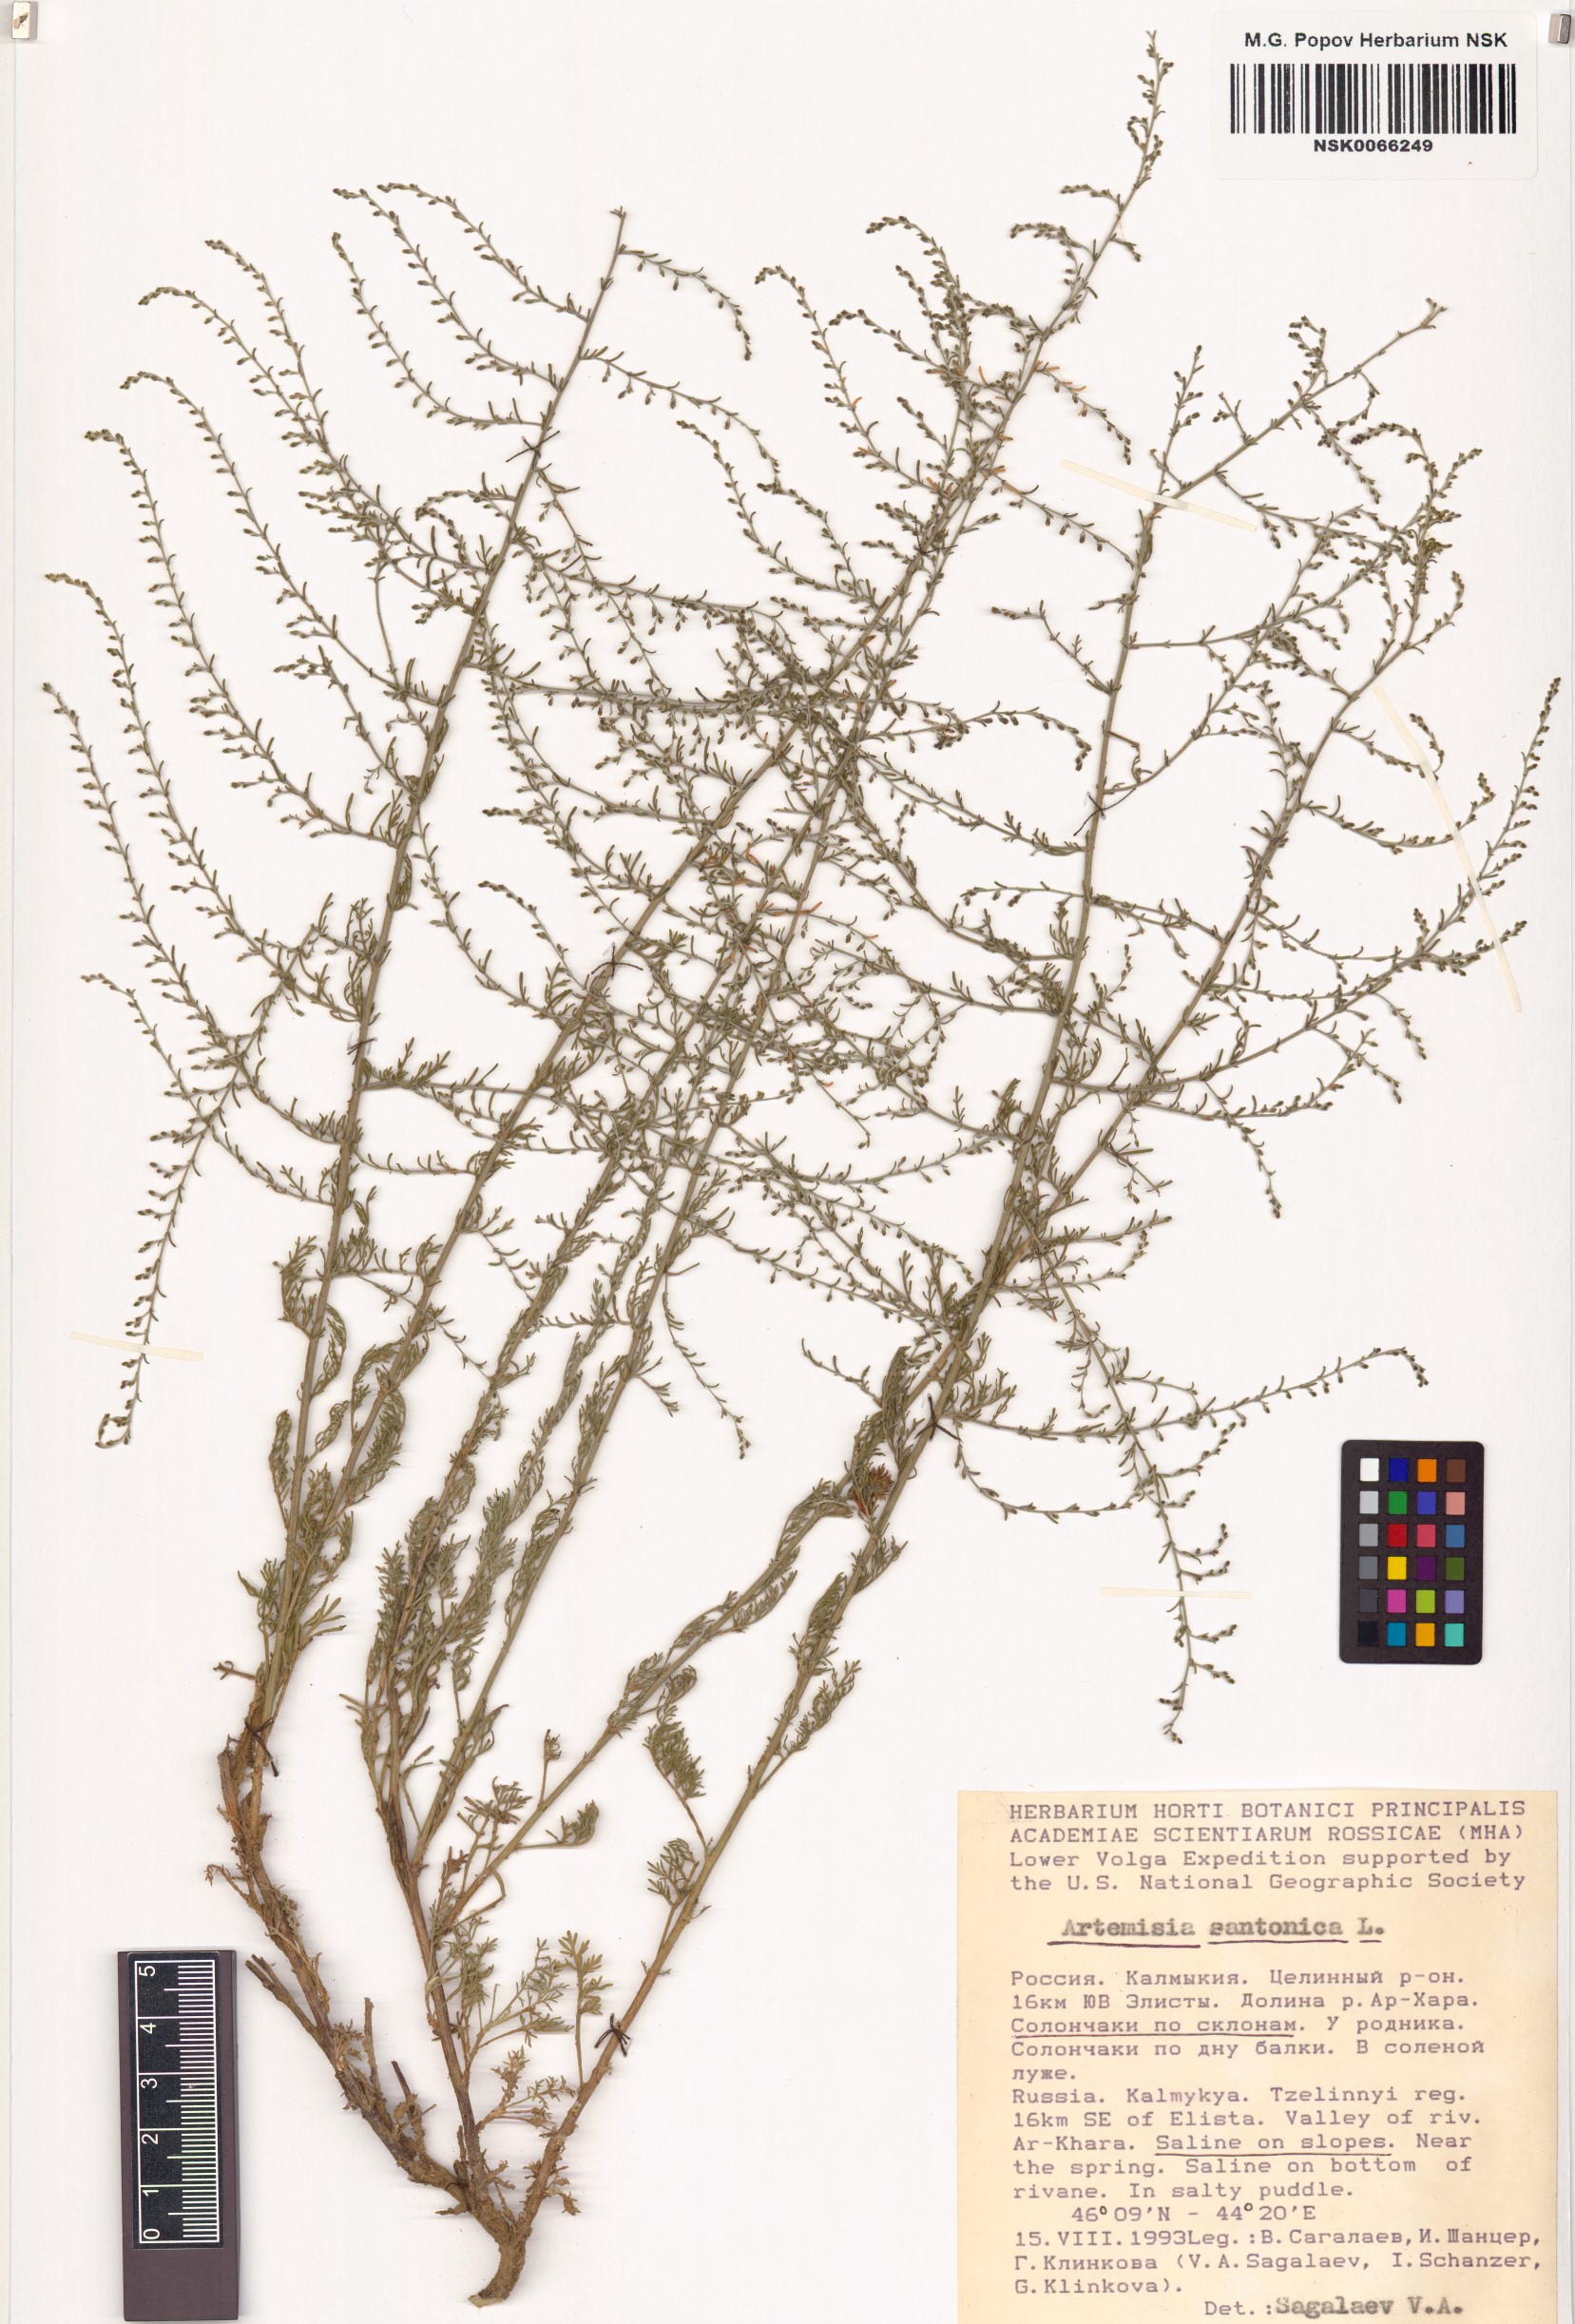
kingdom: Plantae
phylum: Tracheophyta
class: Magnoliopsida
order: Asterales
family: Asteraceae
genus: Artemisia
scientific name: Artemisia santonicum
